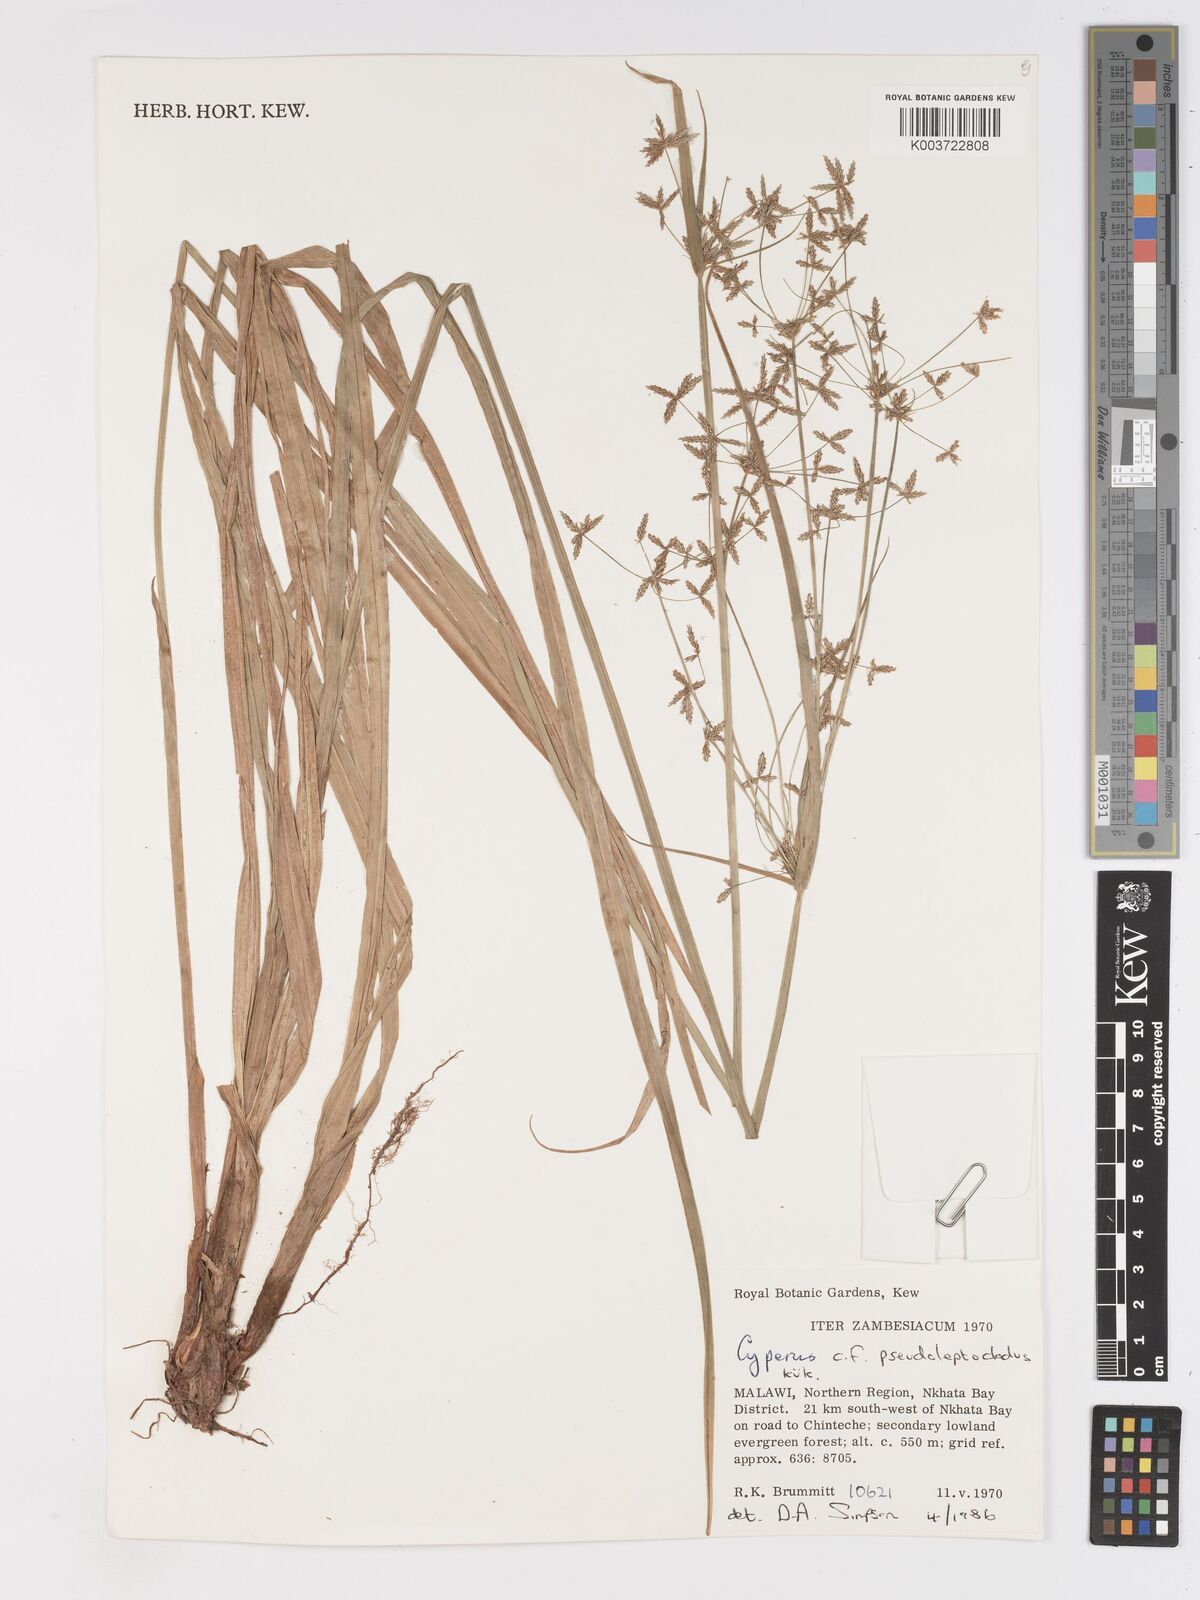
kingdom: Plantae
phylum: Tracheophyta
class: Liliopsida
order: Poales
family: Cyperaceae
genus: Cyperus
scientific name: Cyperus glaucophyllus
